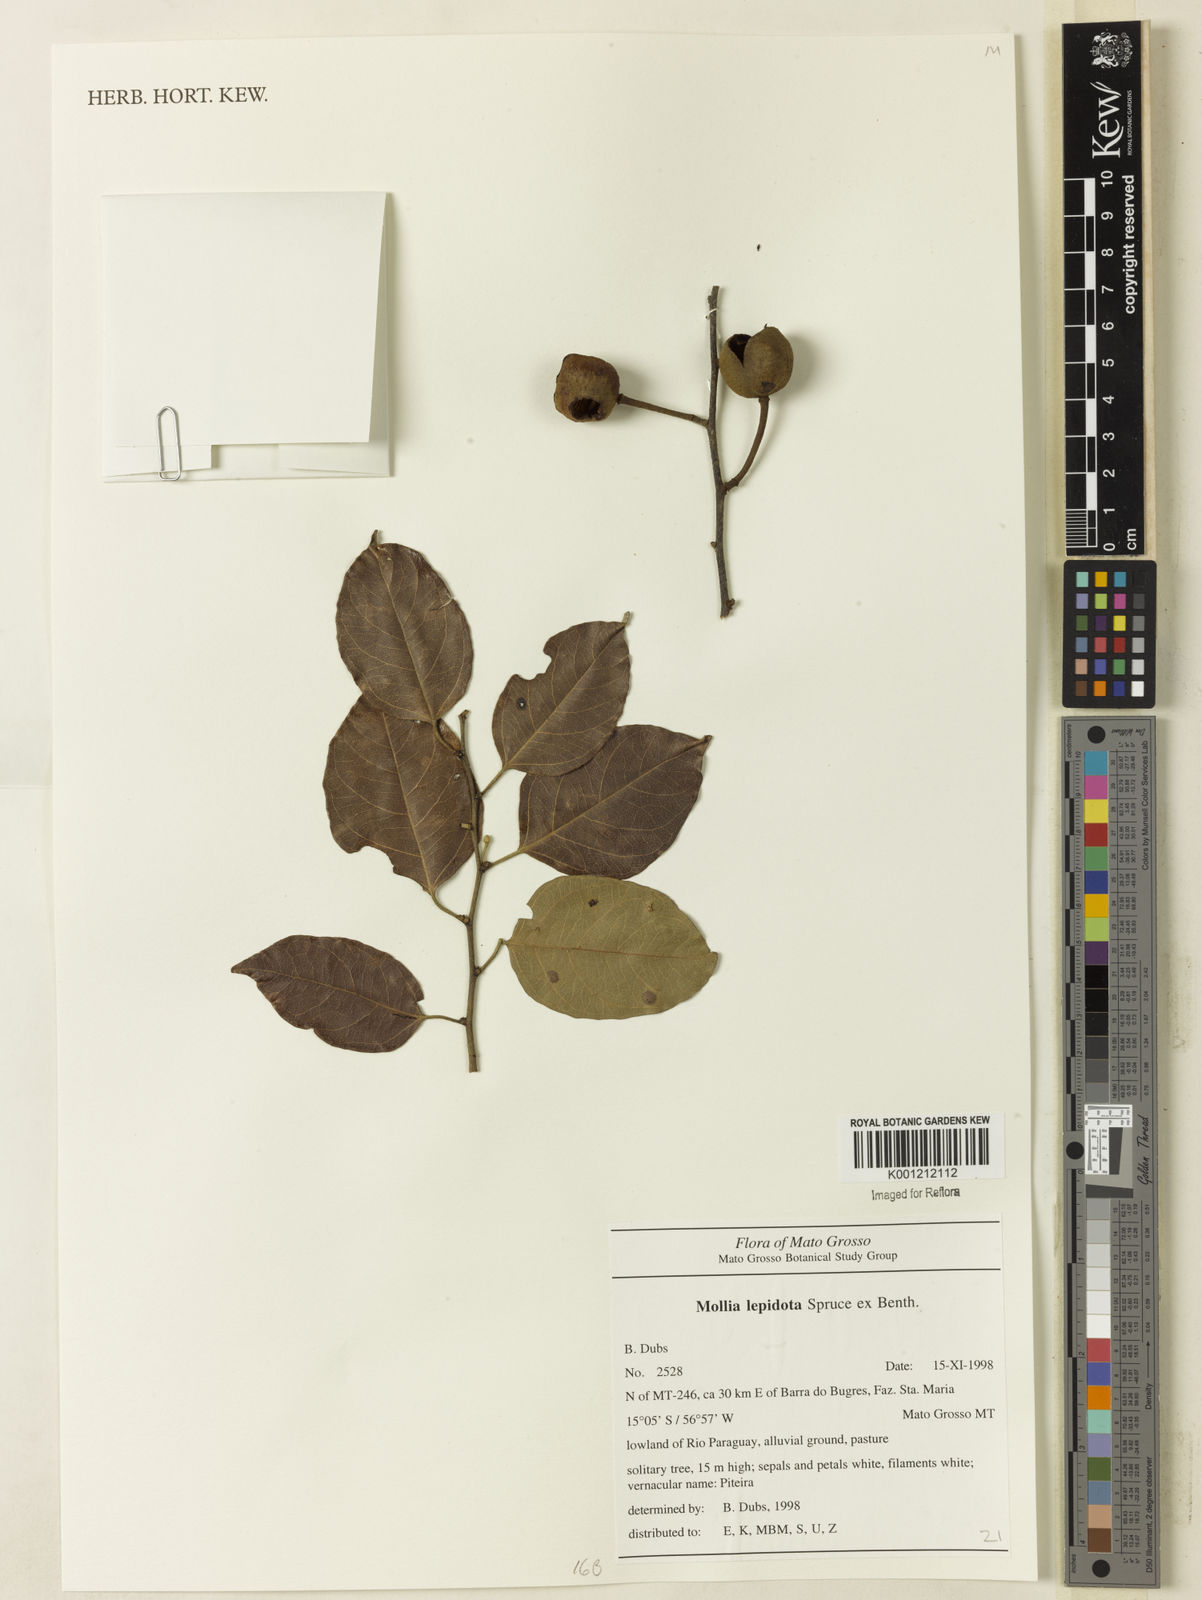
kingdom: Plantae
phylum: Tracheophyta
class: Magnoliopsida
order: Malvales
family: Malvaceae
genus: Mollia
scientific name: Mollia lepidota
